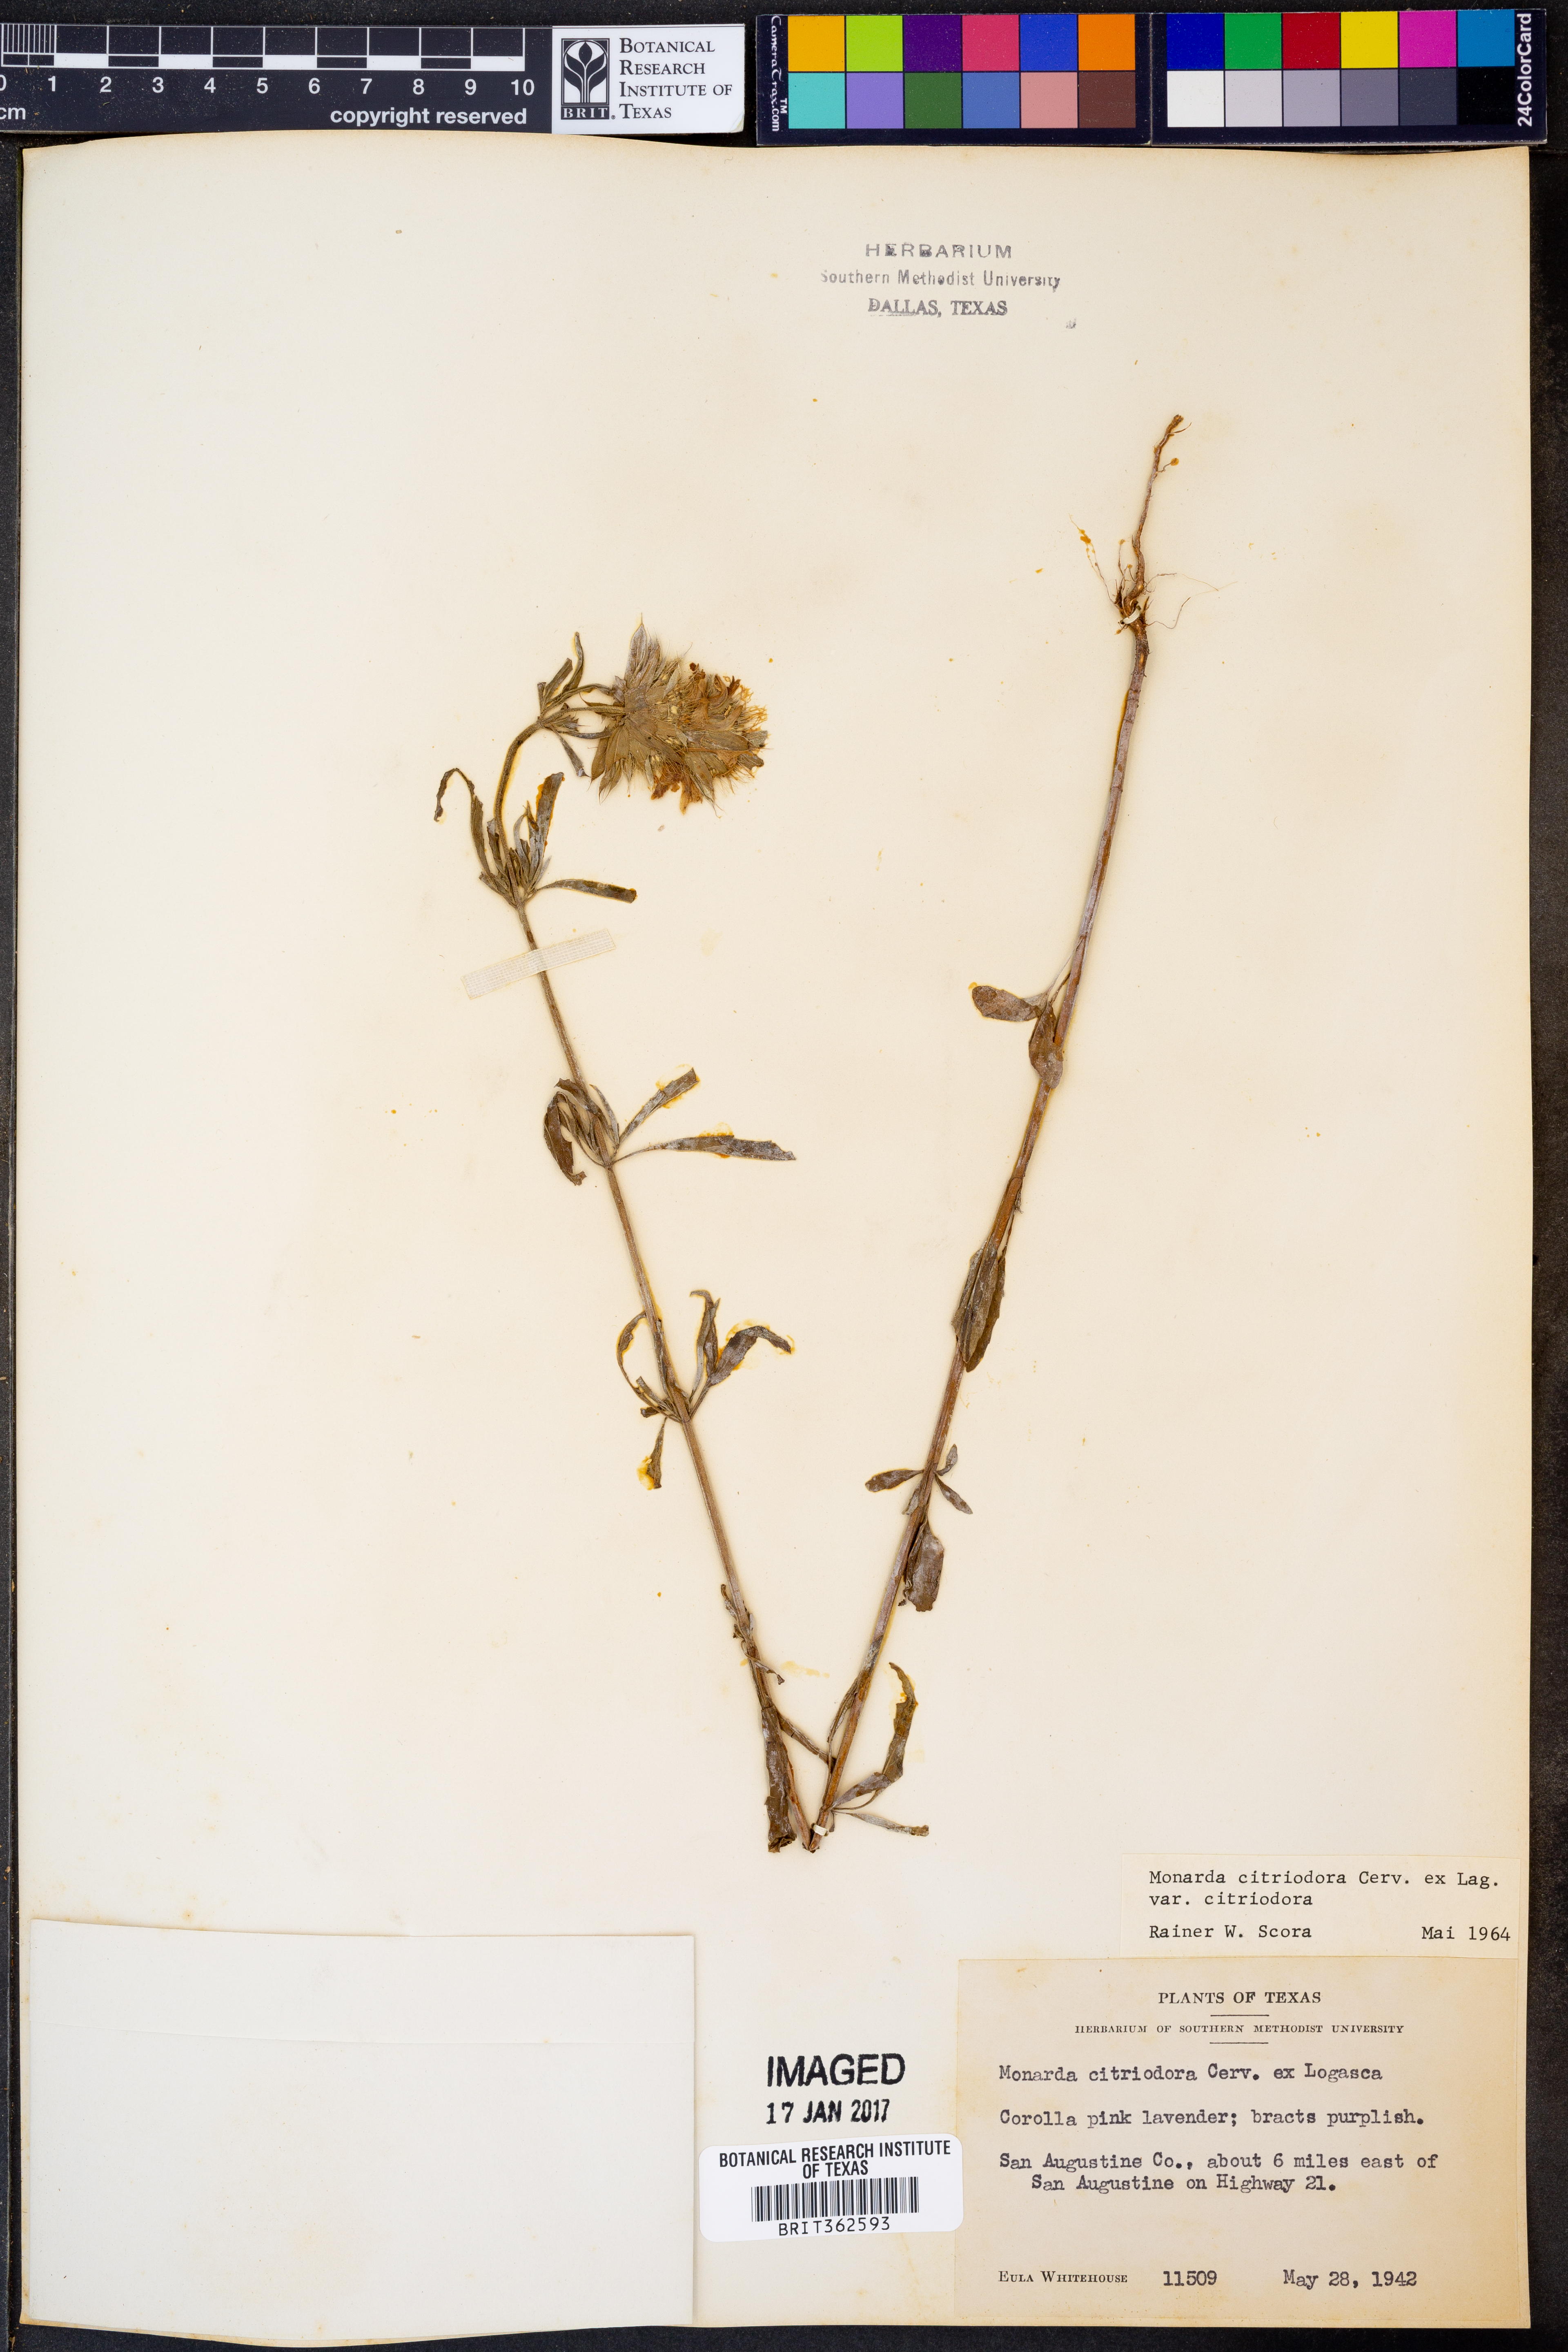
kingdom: Plantae
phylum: Tracheophyta
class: Magnoliopsida
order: Lamiales
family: Lamiaceae
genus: Monarda
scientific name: Monarda citriodora
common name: Lemon beebalm
